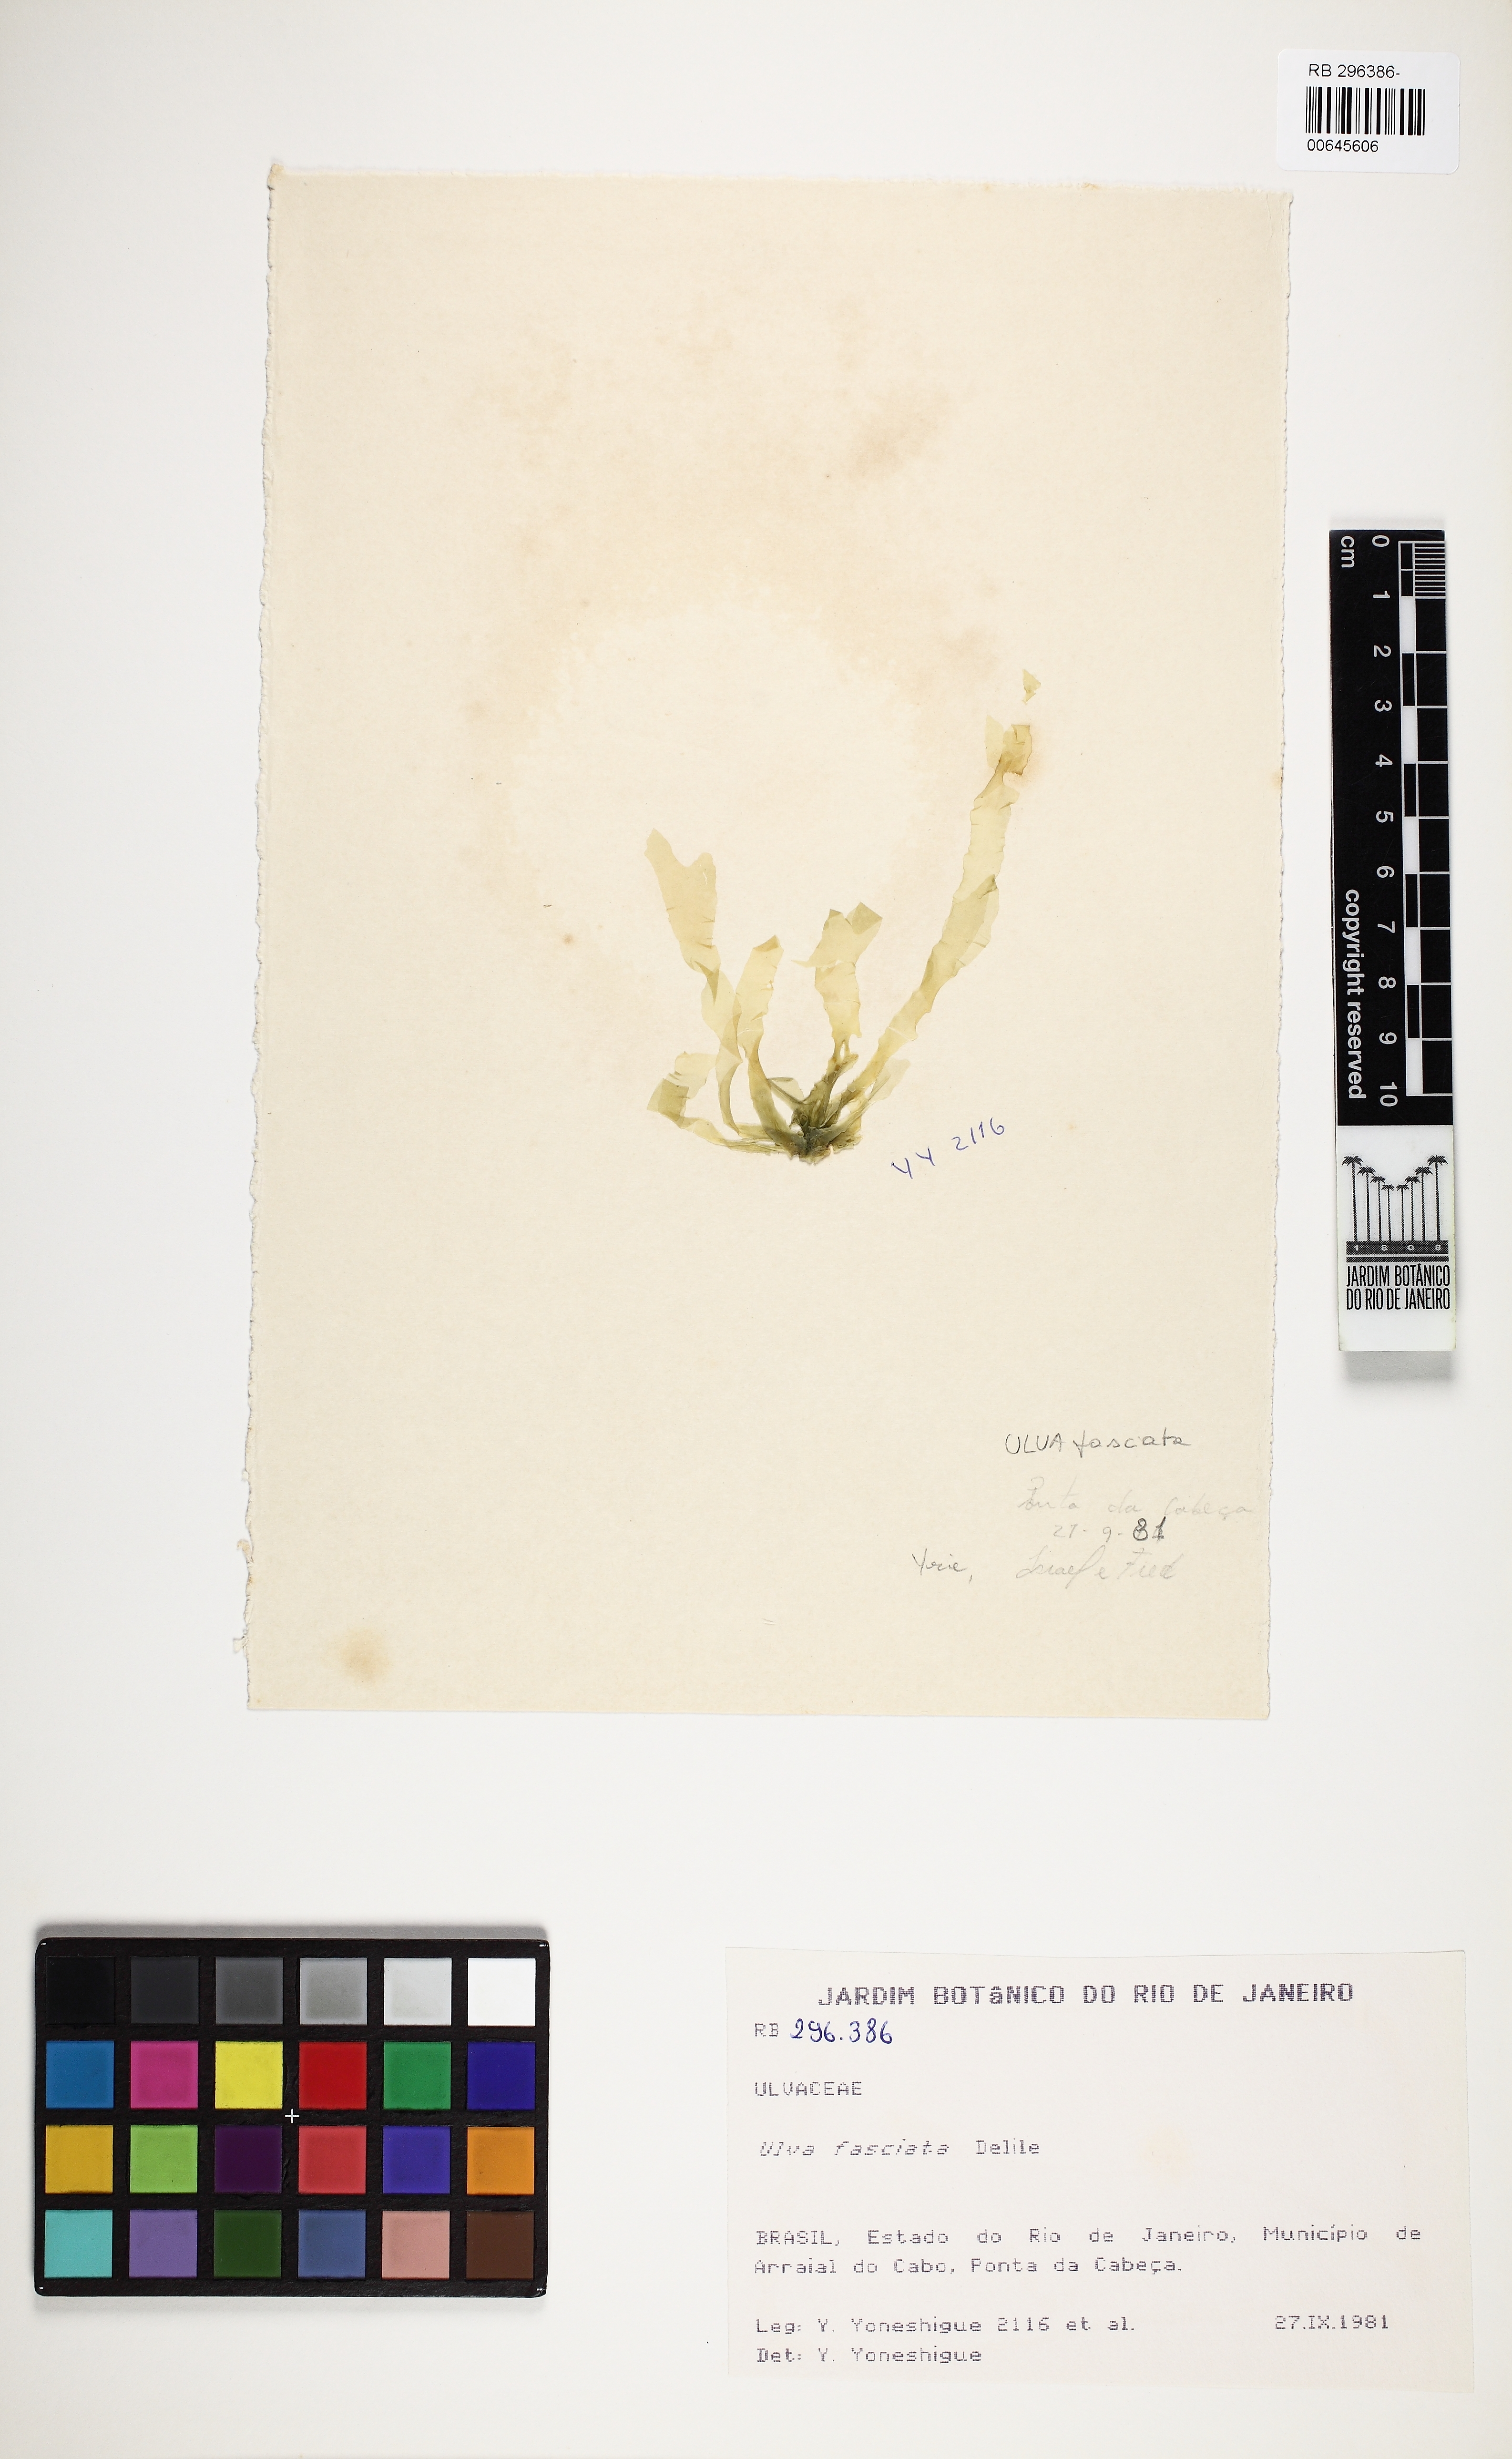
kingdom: Plantae
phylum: Chlorophyta
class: Ulvophyceae
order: Ulvales
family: Ulvaceae
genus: Ulva
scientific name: Ulva lactuca
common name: Sea lettuce
